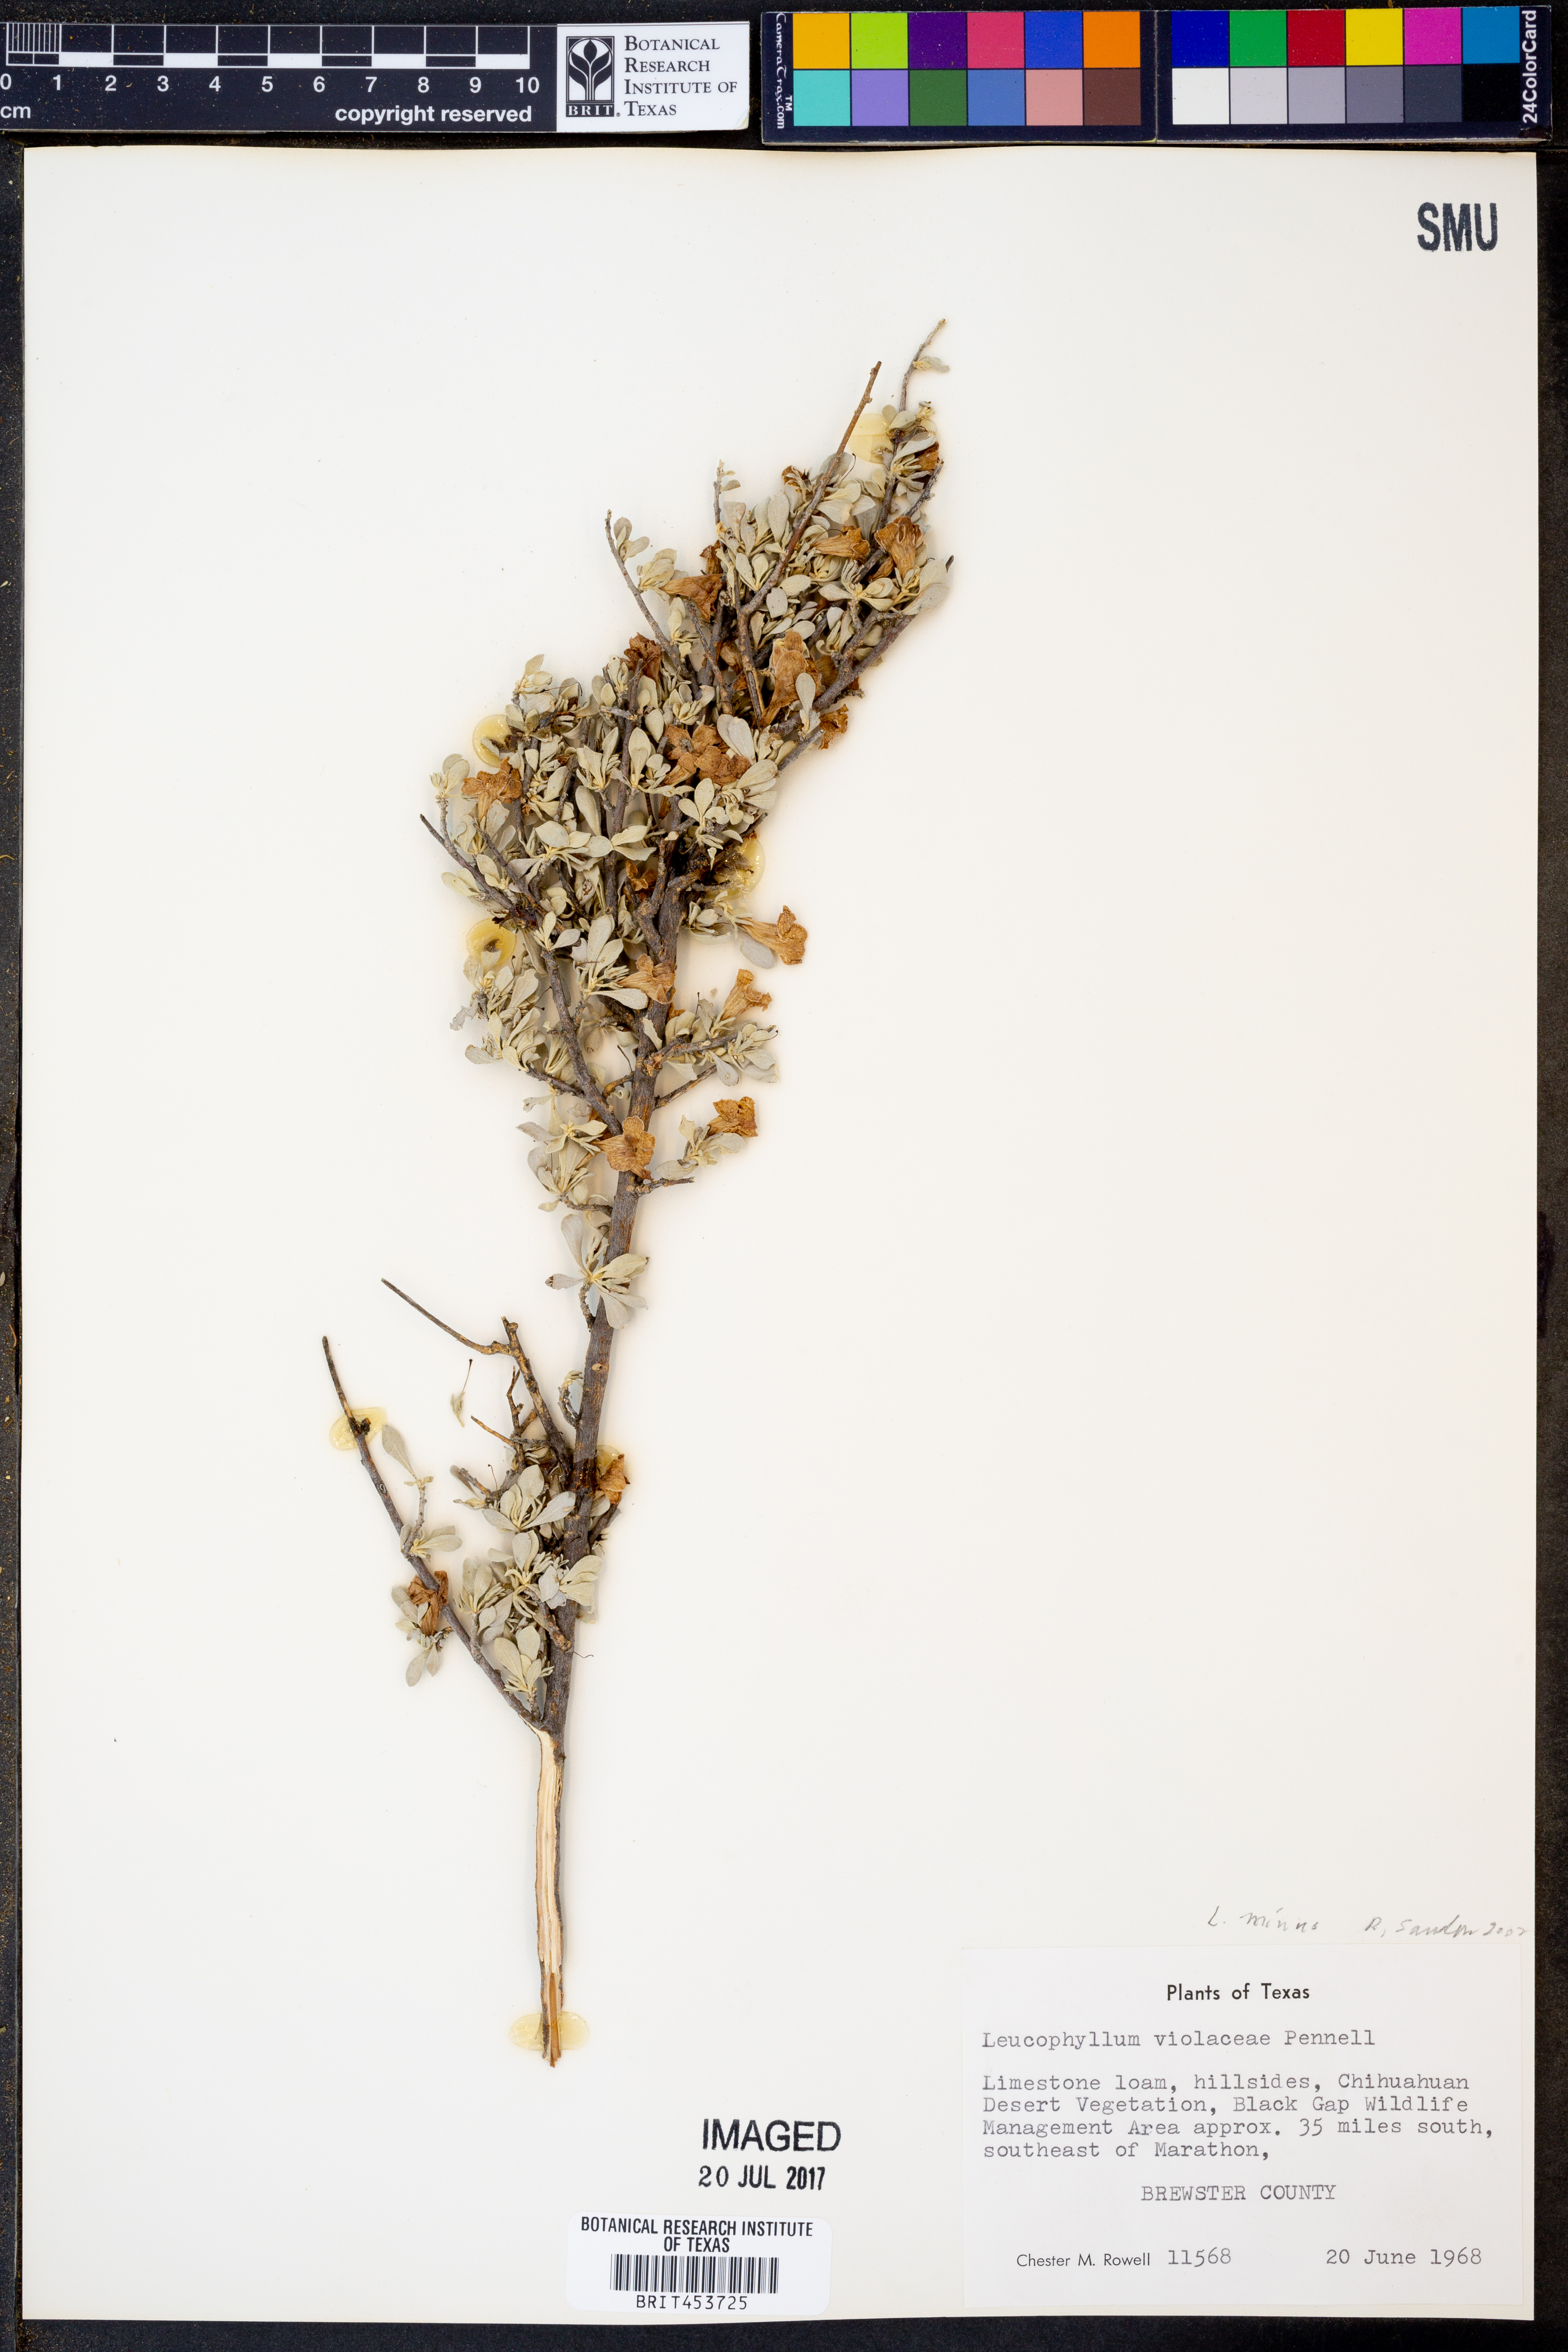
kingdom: Plantae
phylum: Tracheophyta
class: Magnoliopsida
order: Lamiales
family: Scrophulariaceae
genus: Leucophyllum
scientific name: Leucophyllum candidum
